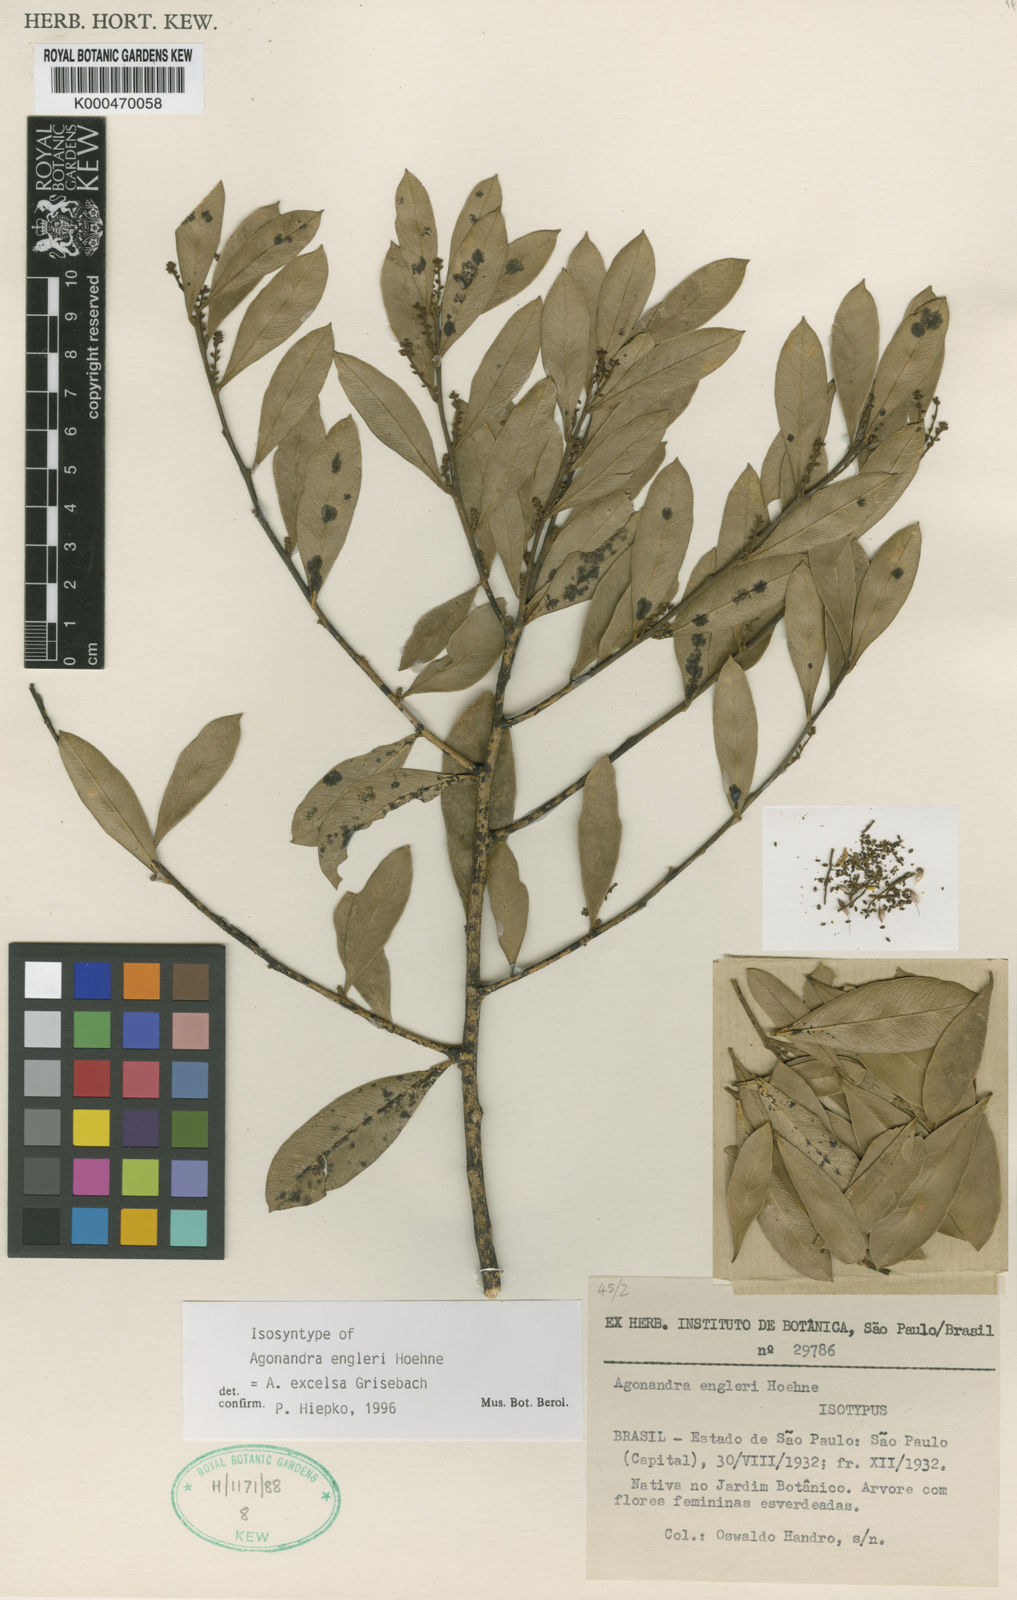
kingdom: Plantae
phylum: Tracheophyta
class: Magnoliopsida
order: Santalales
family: Opiliaceae
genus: Agonandra
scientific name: Agonandra excelsa
